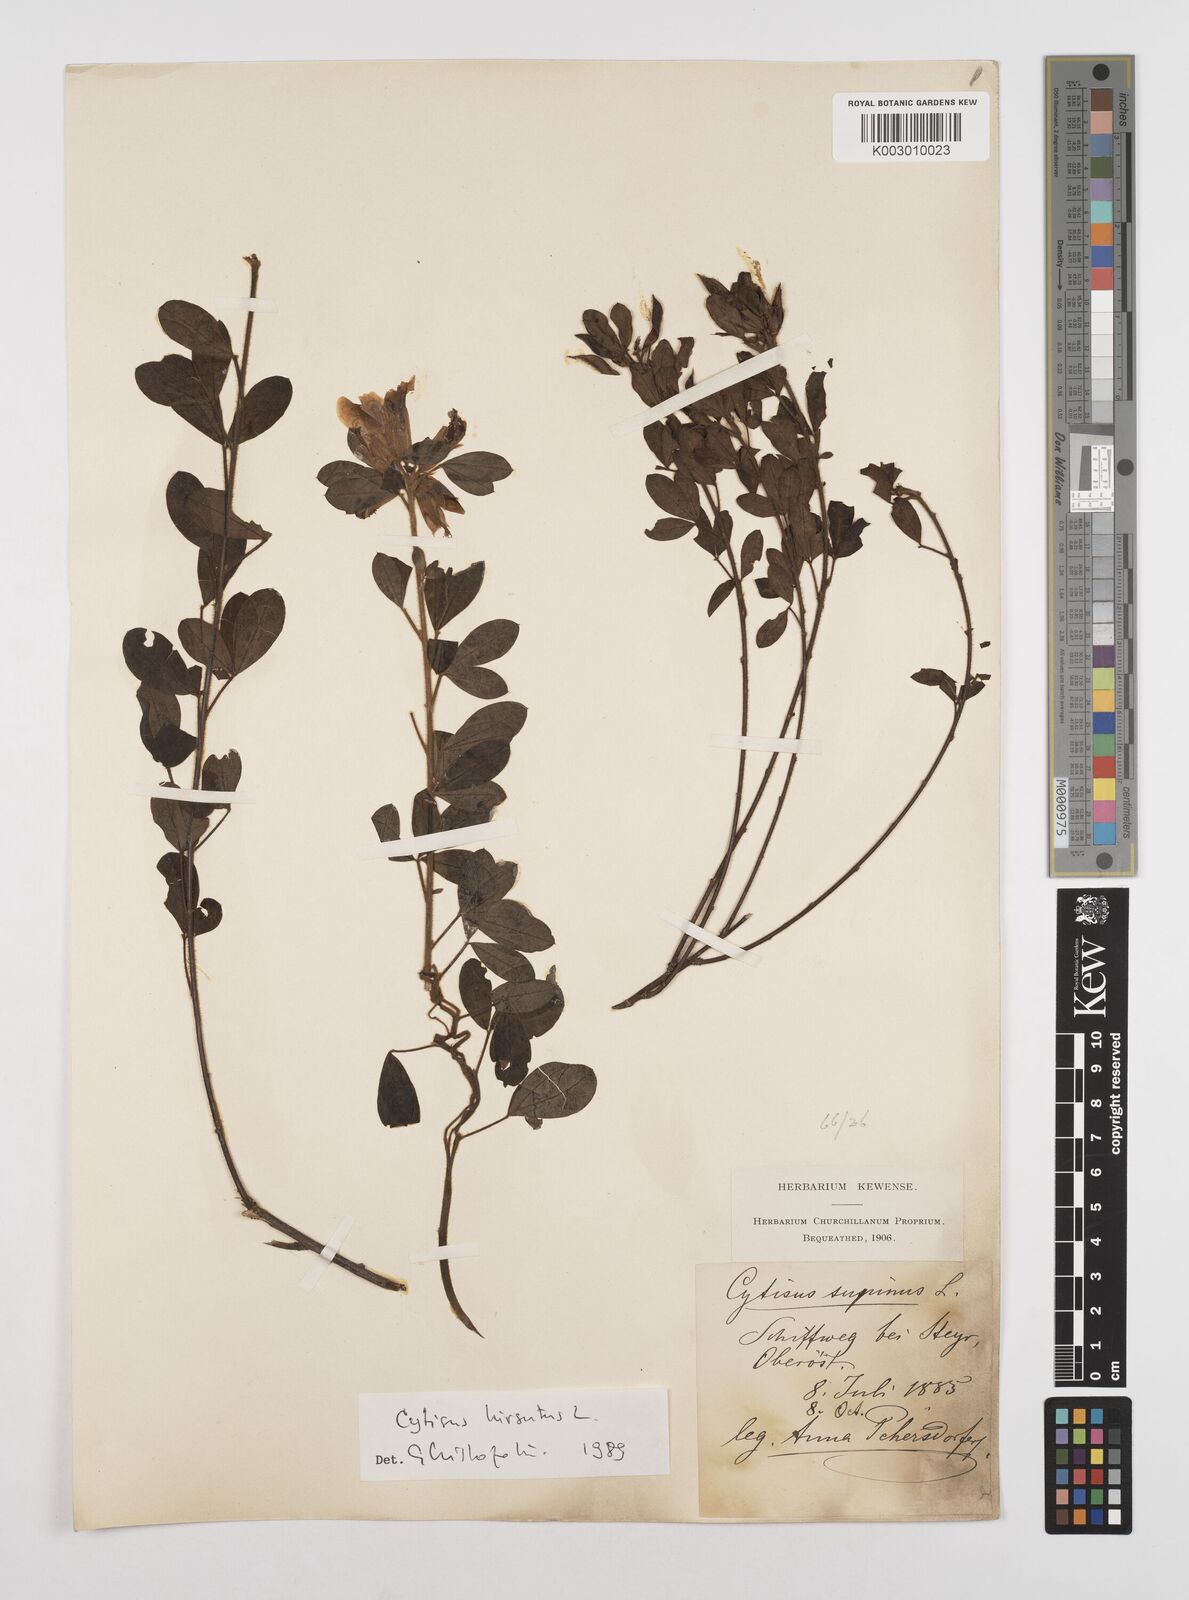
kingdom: Plantae
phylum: Tracheophyta
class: Magnoliopsida
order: Fabales
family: Fabaceae
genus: Chamaecytisus
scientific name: Chamaecytisus hirsutus
